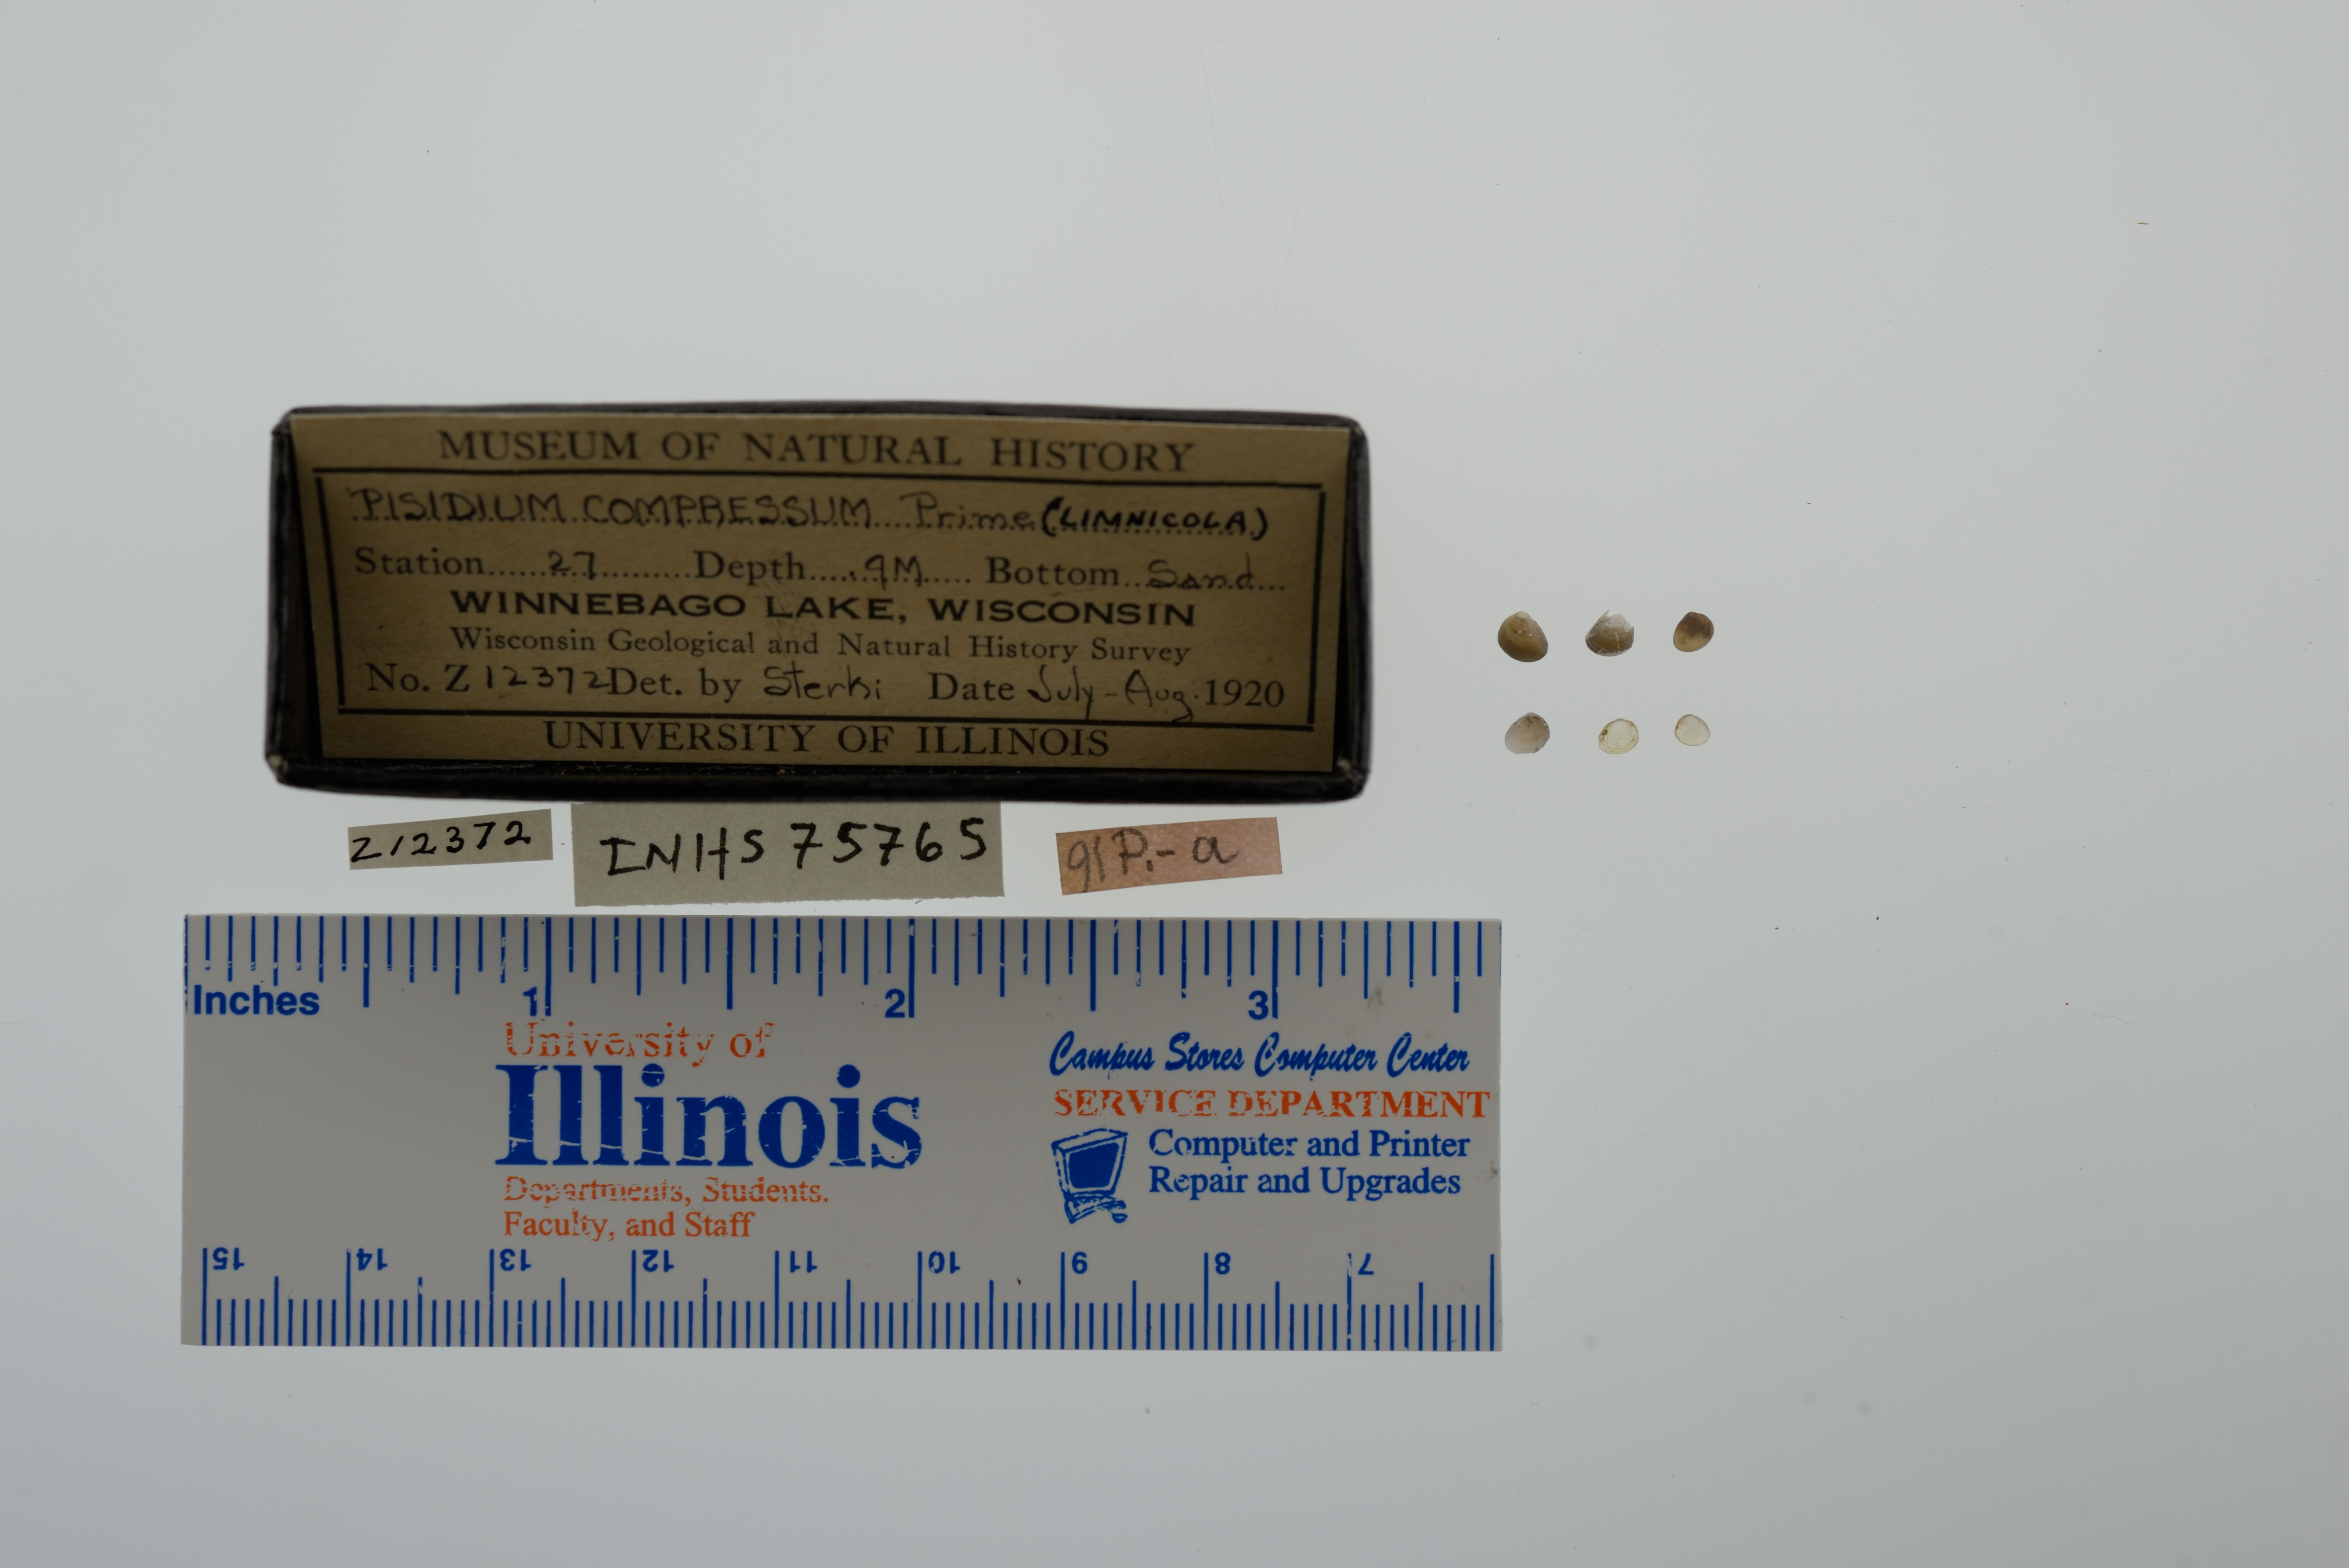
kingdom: Animalia
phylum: Mollusca
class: Bivalvia
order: Sphaeriida
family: Sphaeriidae
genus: Euglesa
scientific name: Euglesa compressa
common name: Ridgedbeak peaclam
